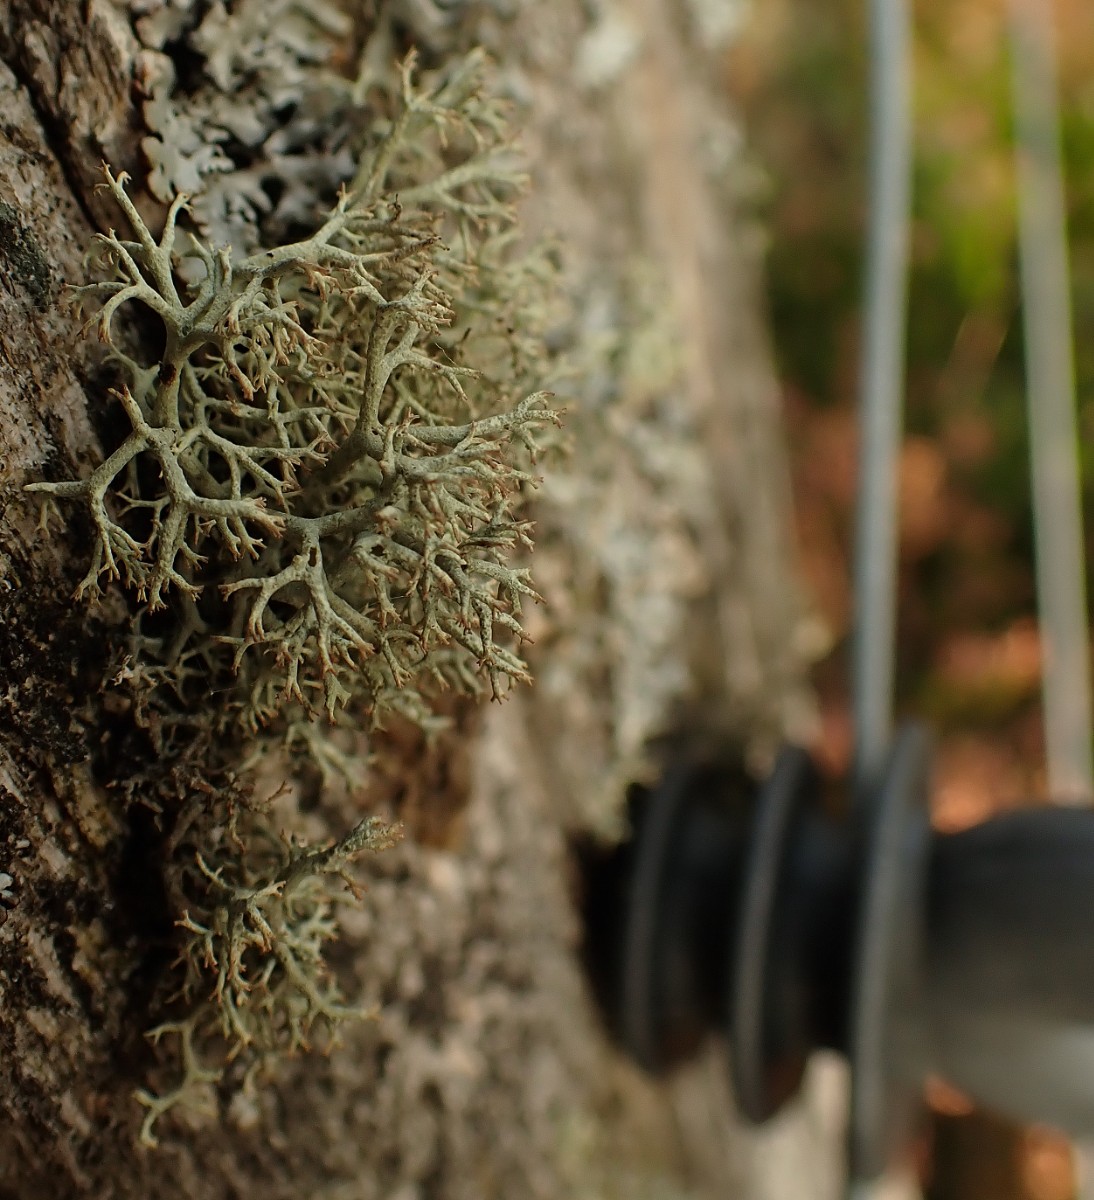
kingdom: Fungi
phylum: Ascomycota
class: Lecanoromycetes
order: Lecanorales
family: Cladoniaceae
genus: Cladonia
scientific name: Cladonia portentosa
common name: hede-rensdyrlav
